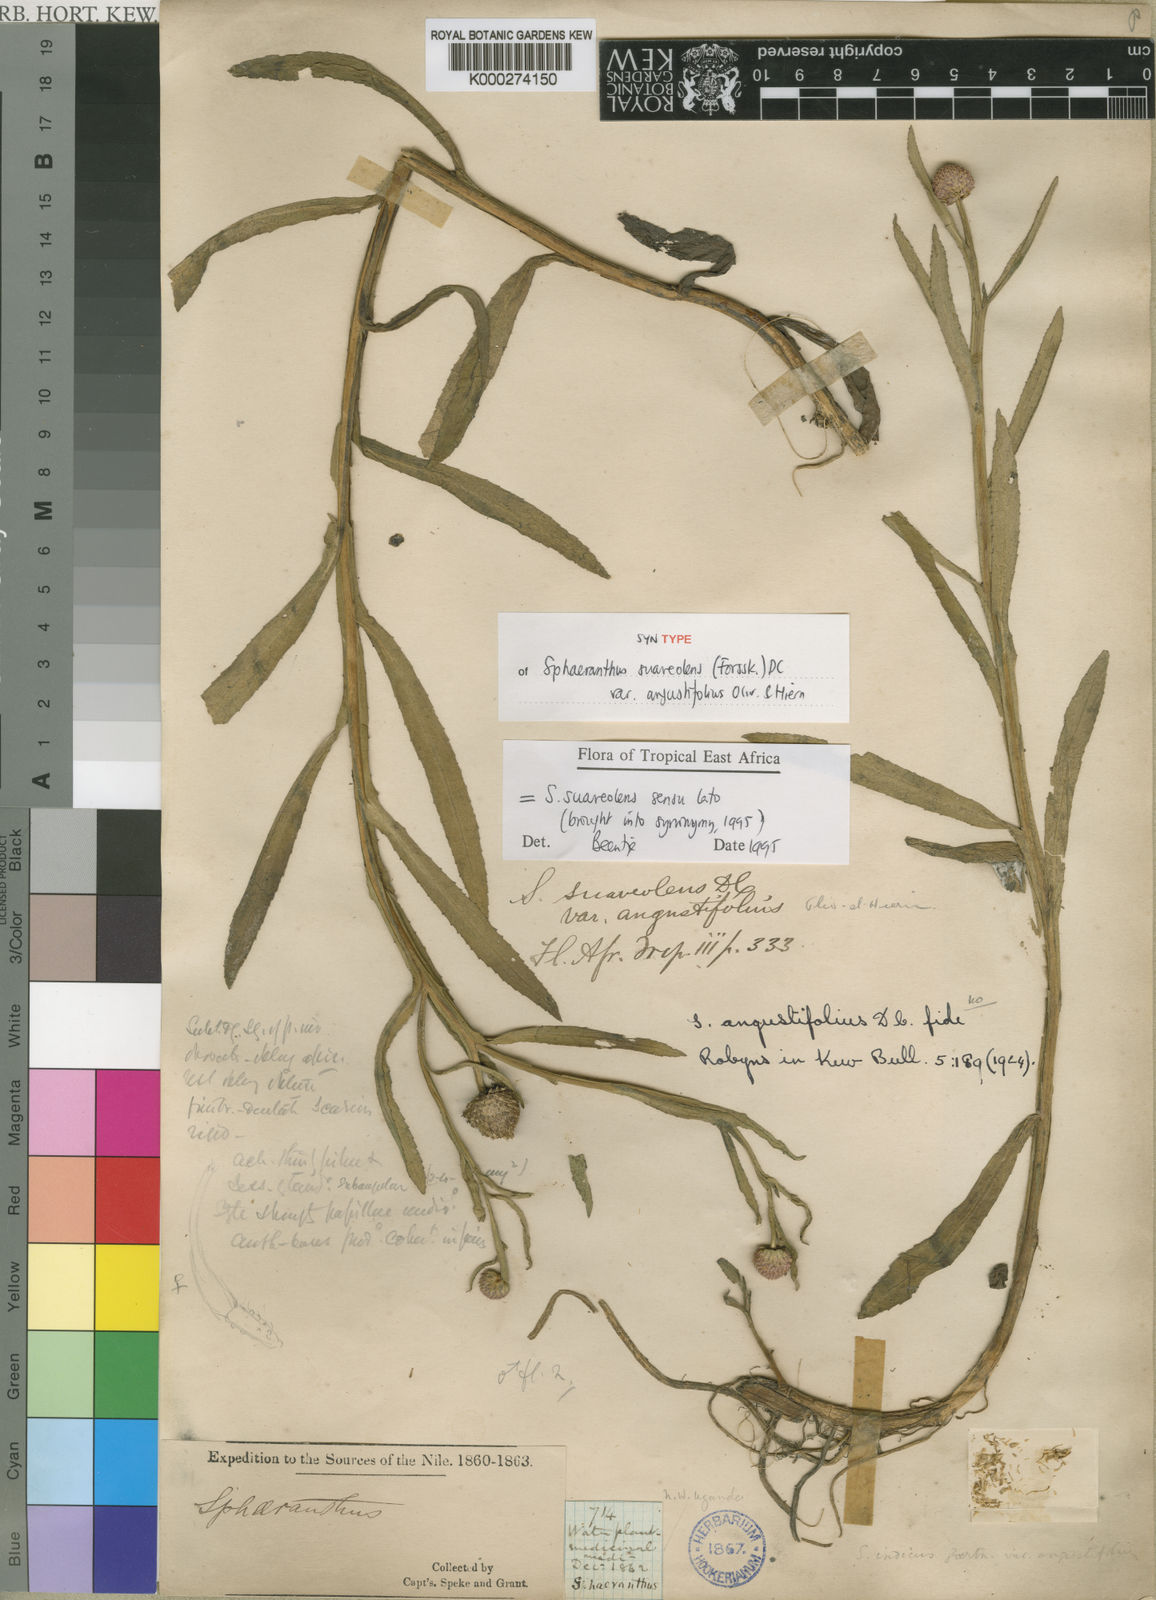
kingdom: Plantae
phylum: Tracheophyta
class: Magnoliopsida
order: Asterales
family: Asteraceae
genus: Sphaeranthus
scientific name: Sphaeranthus suaveolens
